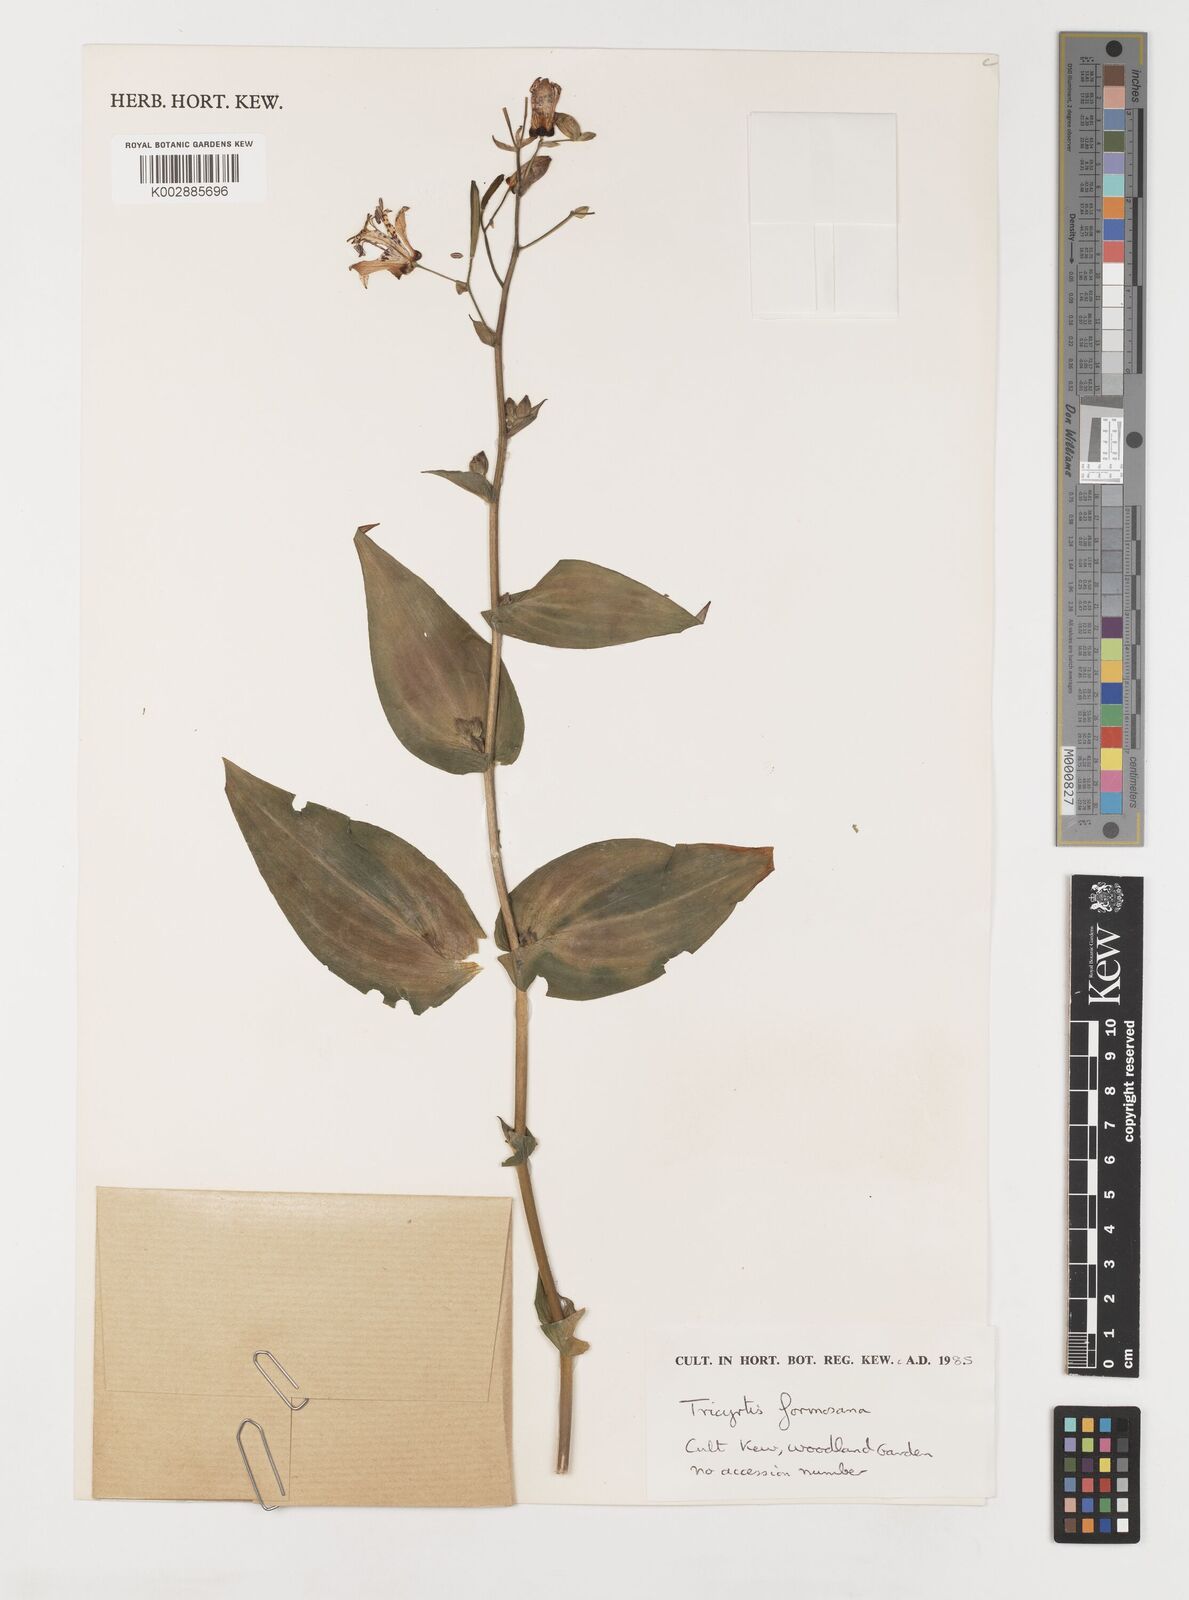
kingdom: Plantae
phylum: Tracheophyta
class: Liliopsida
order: Liliales
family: Liliaceae
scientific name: Liliaceae
